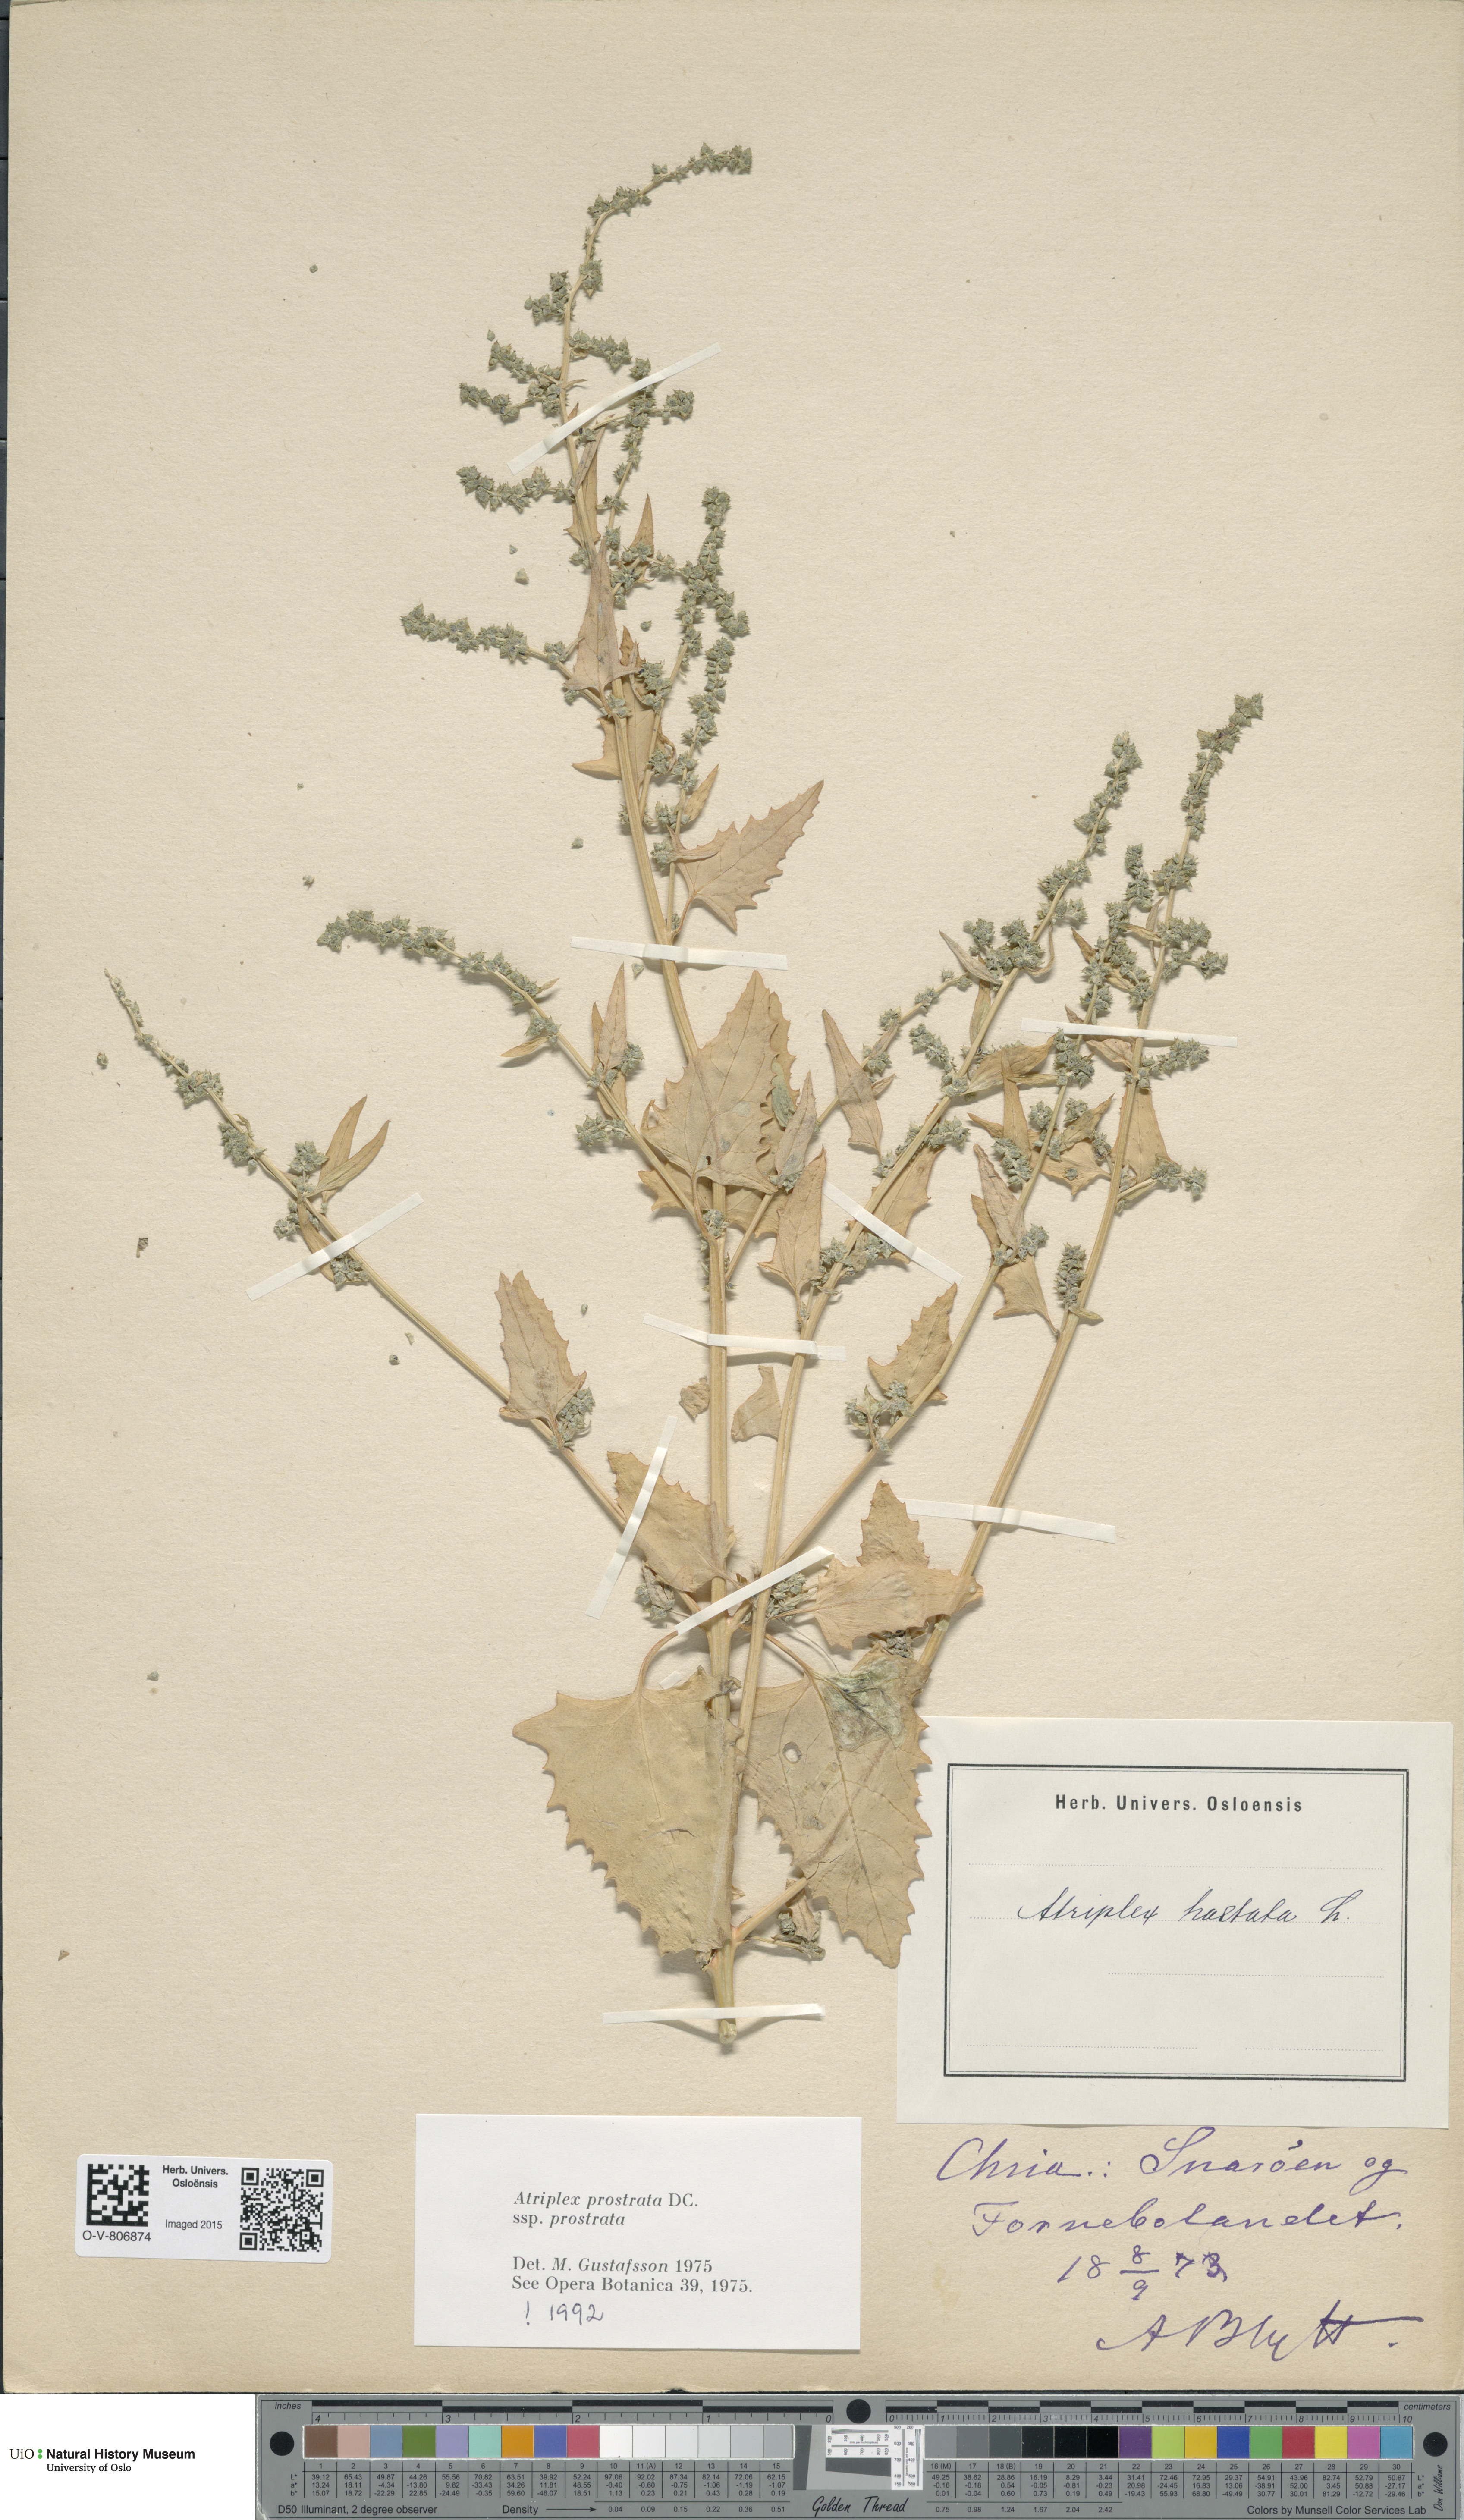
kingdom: Plantae
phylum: Tracheophyta
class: Magnoliopsida
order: Caryophyllales
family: Amaranthaceae
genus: Atriplex
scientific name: Atriplex prostrata
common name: Spear-leaved orache
